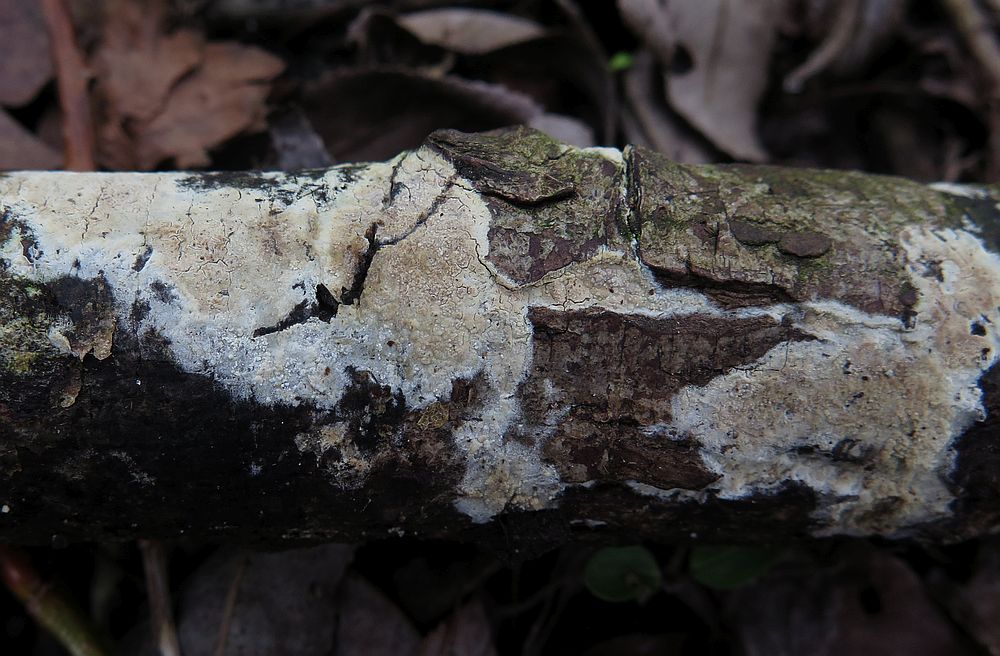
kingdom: Fungi
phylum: Basidiomycota
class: Agaricomycetes
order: Trechisporales
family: Hydnodontaceae
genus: Brevicellicium
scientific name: Brevicellicium olivascens
